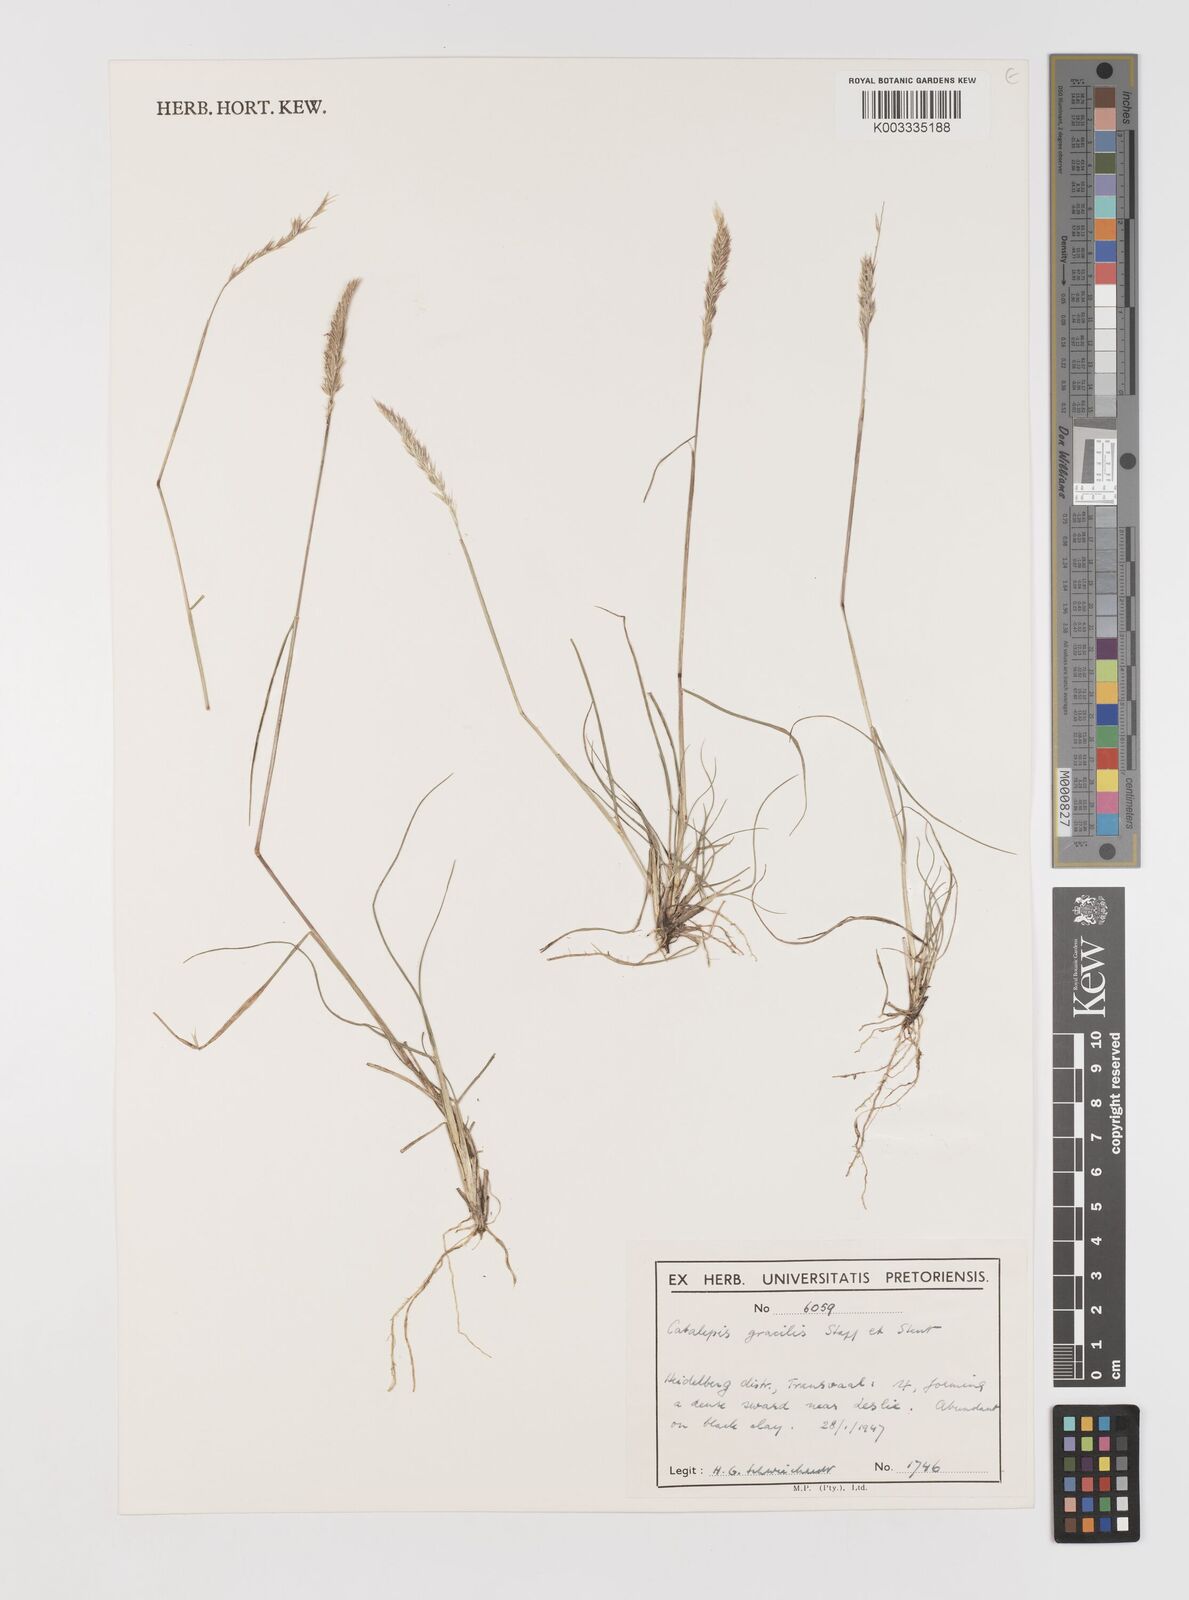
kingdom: Plantae
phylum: Tracheophyta
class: Liliopsida
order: Poales
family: Poaceae
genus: Catalepis
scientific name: Catalepis gracilis
